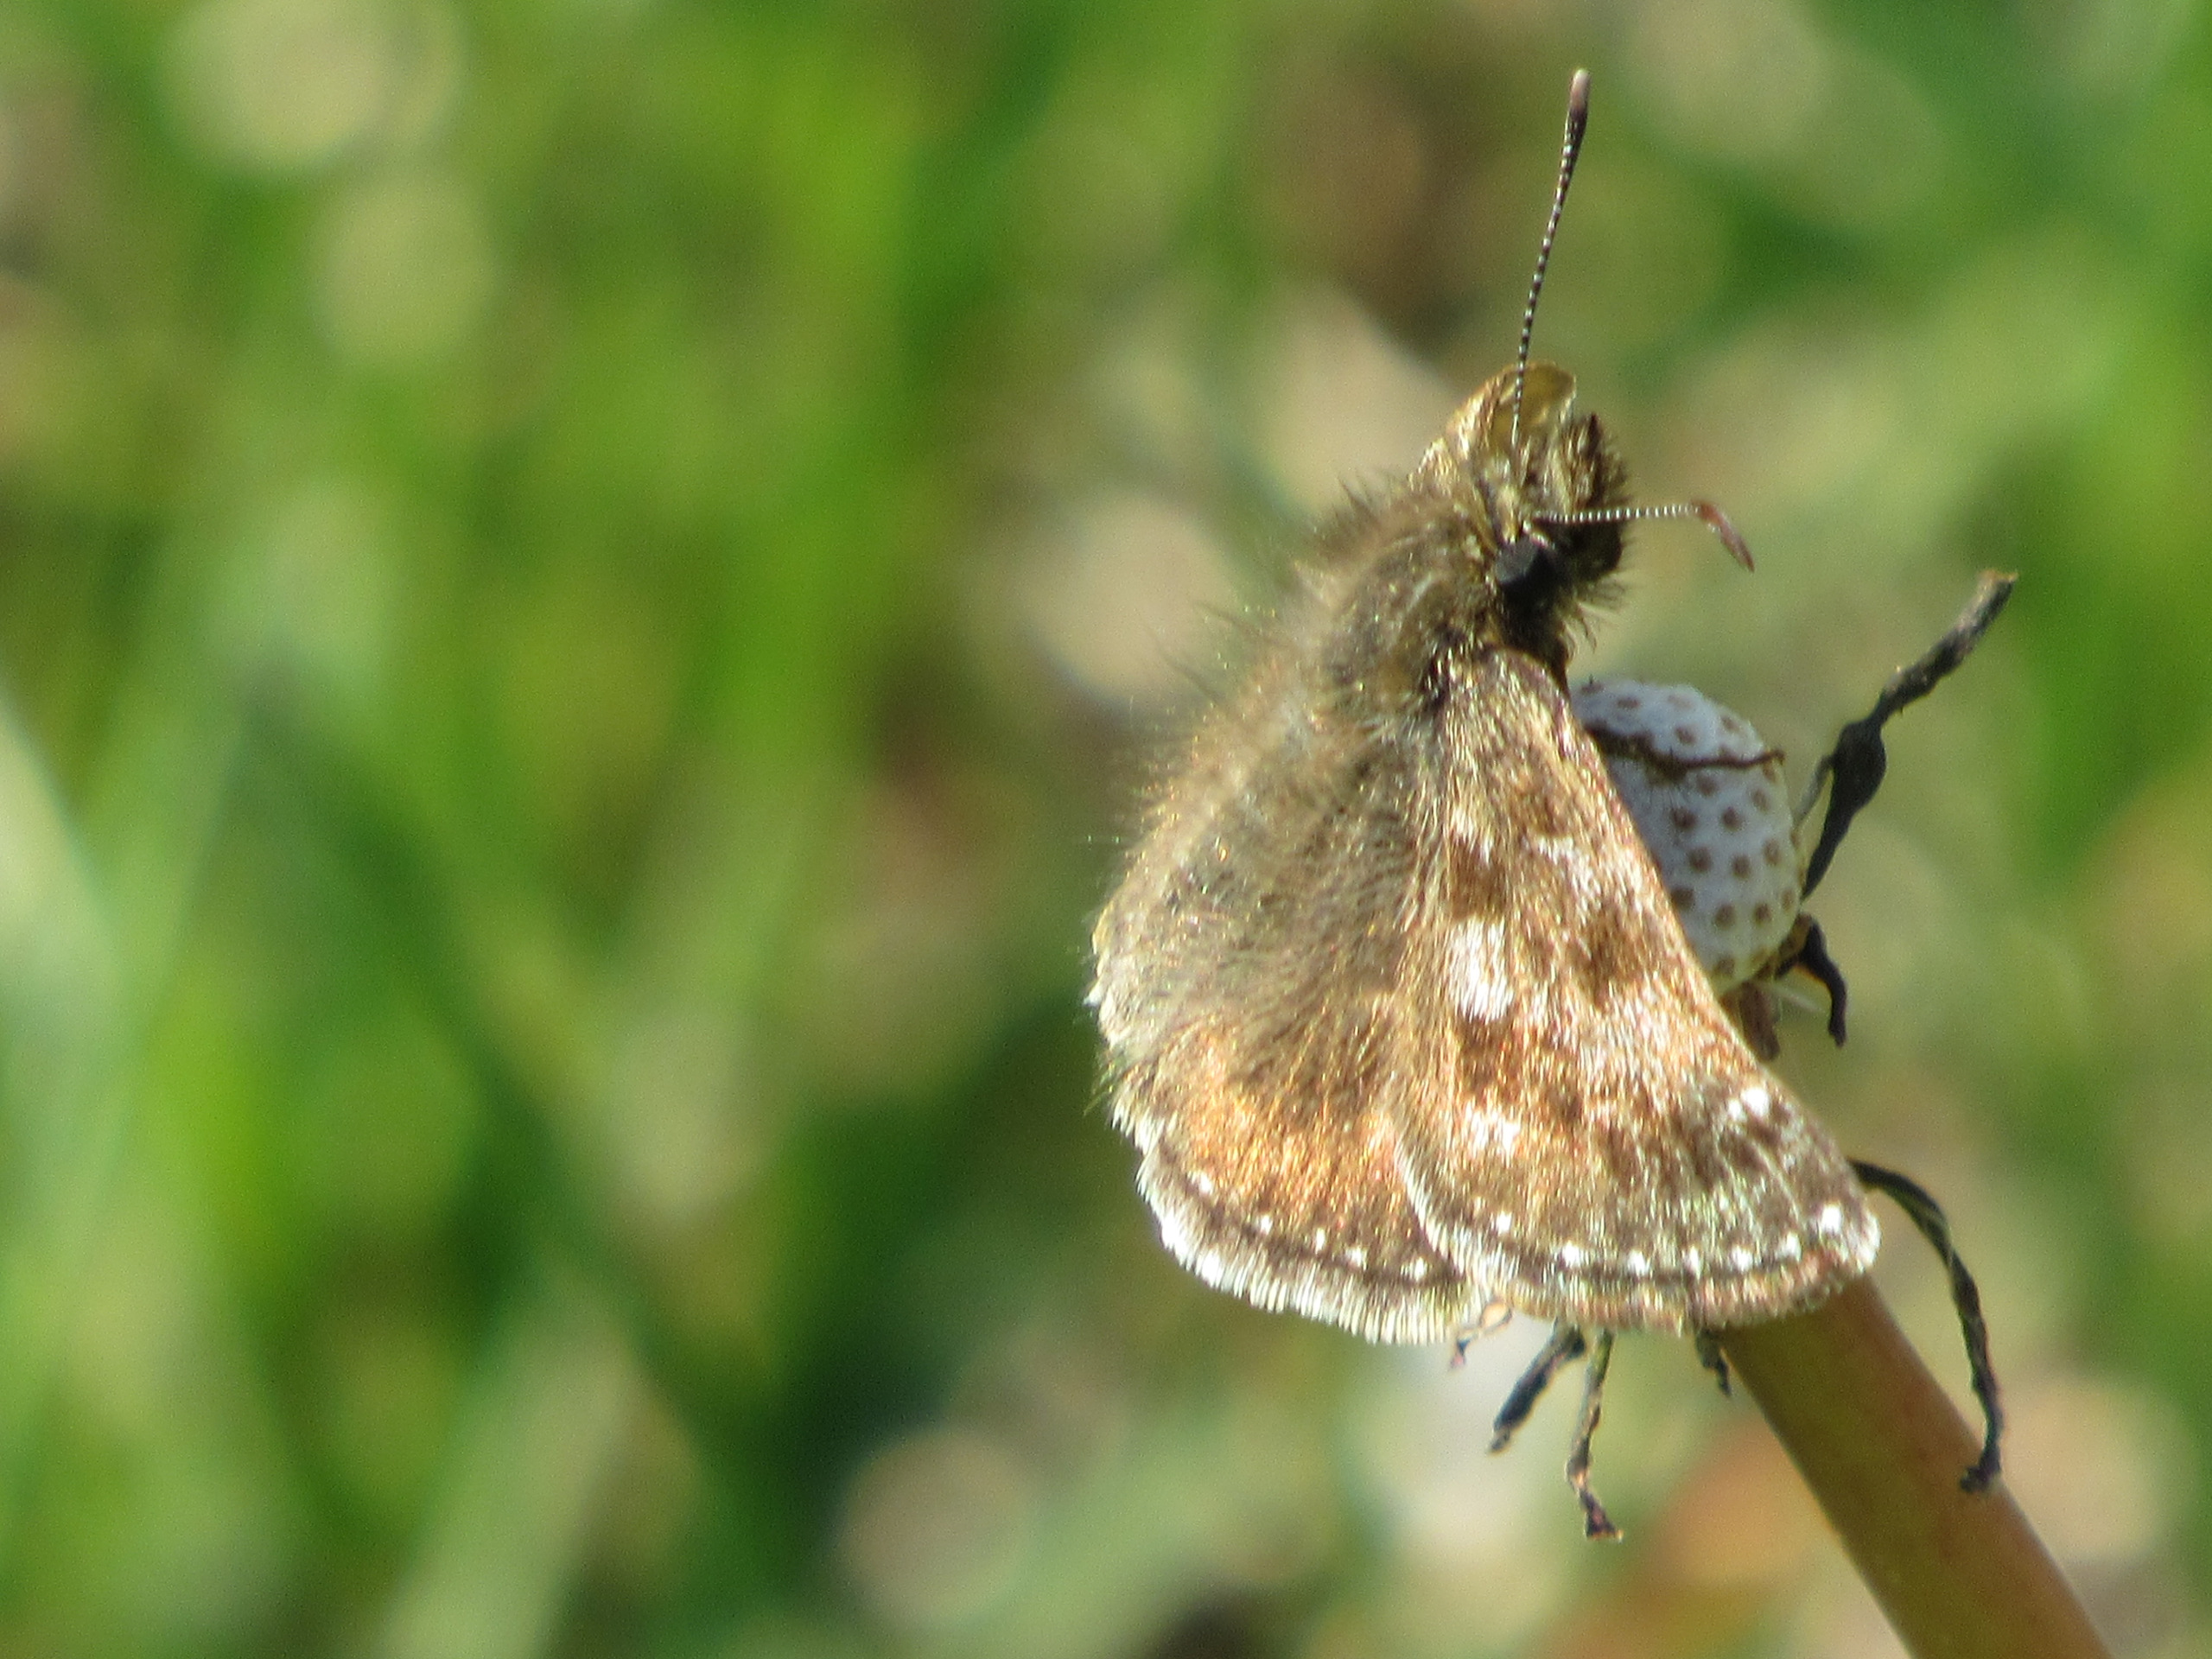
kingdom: Animalia
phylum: Arthropoda
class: Insecta
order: Lepidoptera
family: Hesperiidae
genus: Erynnis
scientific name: Erynnis tages
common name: Gråbåndet bredpande
